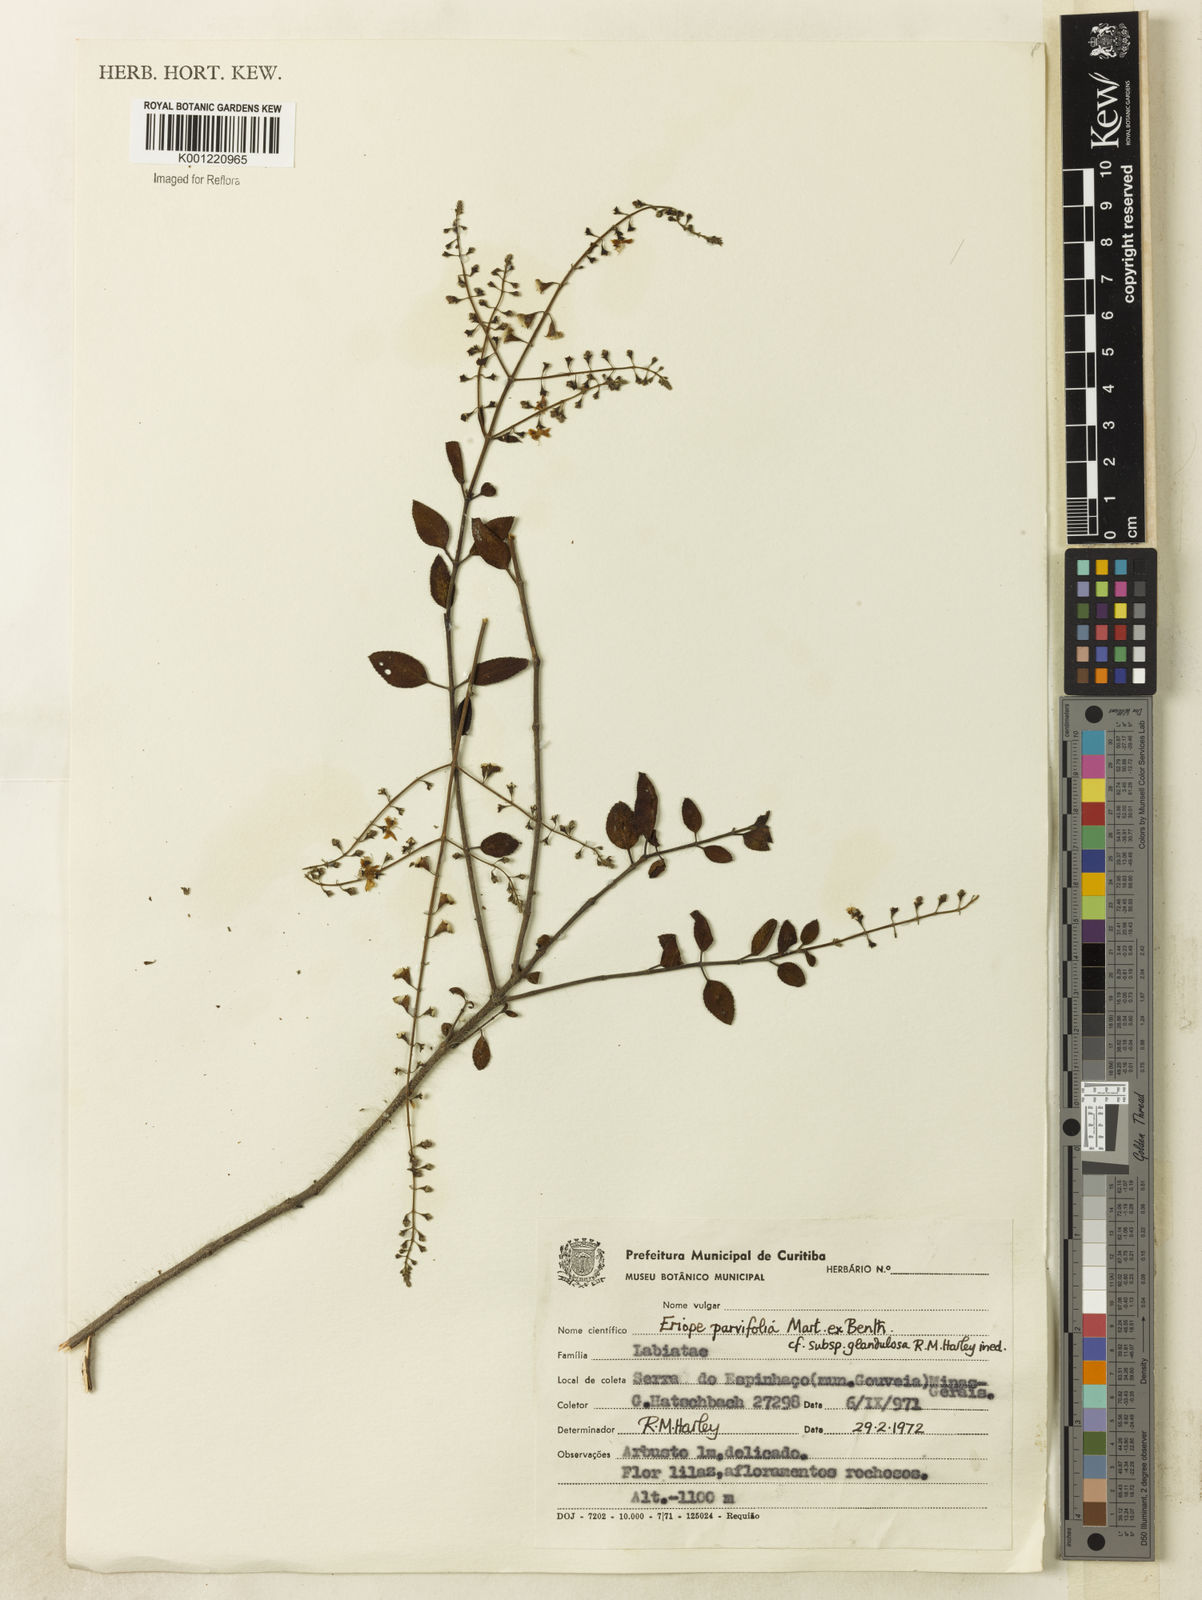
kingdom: Plantae
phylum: Tracheophyta
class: Magnoliopsida
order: Lamiales
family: Lamiaceae
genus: Eriope
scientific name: Eriope glandulosa
